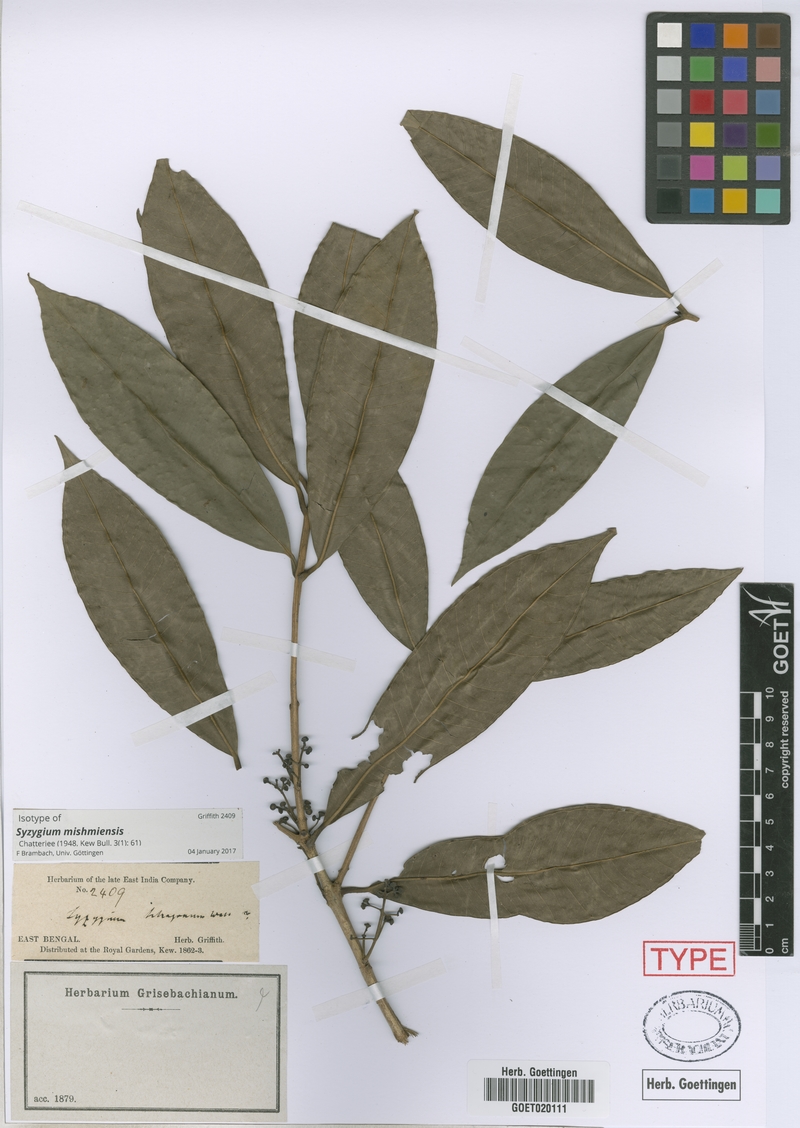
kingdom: Plantae
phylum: Tracheophyta
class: Magnoliopsida
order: Myrtales
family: Myrtaceae
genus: Syzygium
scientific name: Syzygium mishmiense
